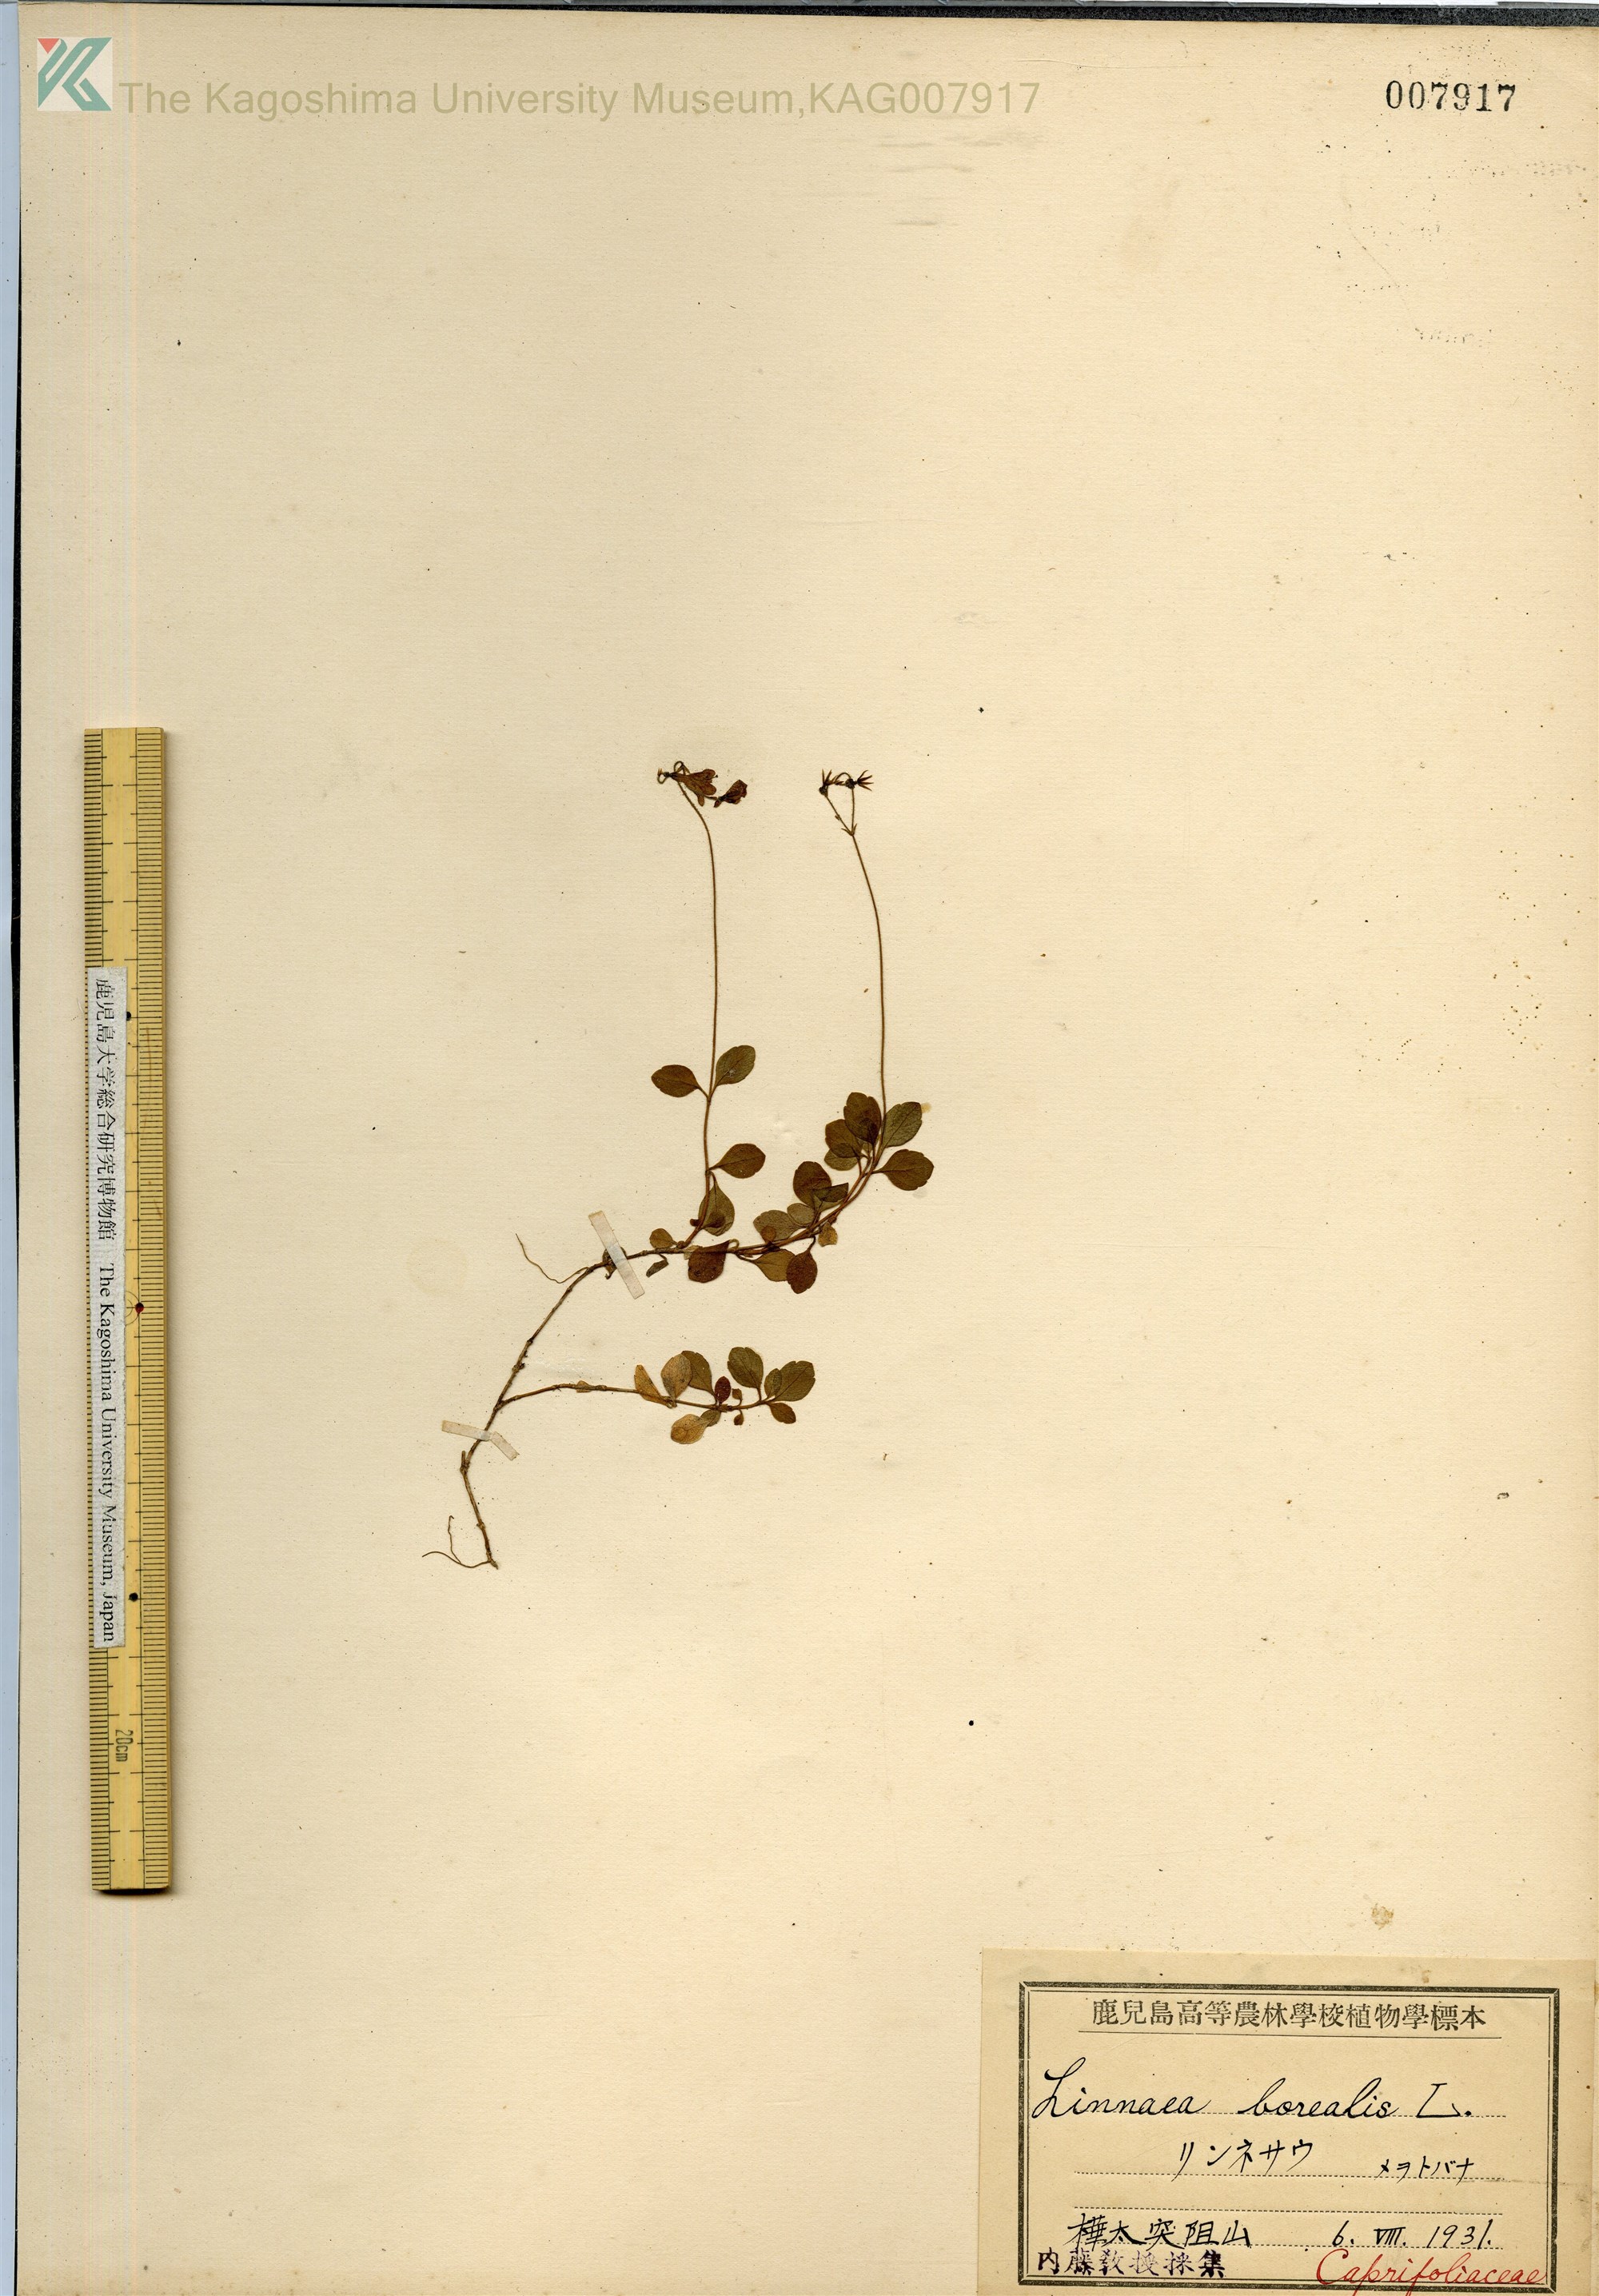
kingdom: Plantae
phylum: Tracheophyta
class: Magnoliopsida
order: Dipsacales
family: Caprifoliaceae
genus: Linnaea
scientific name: Linnaea borealis
